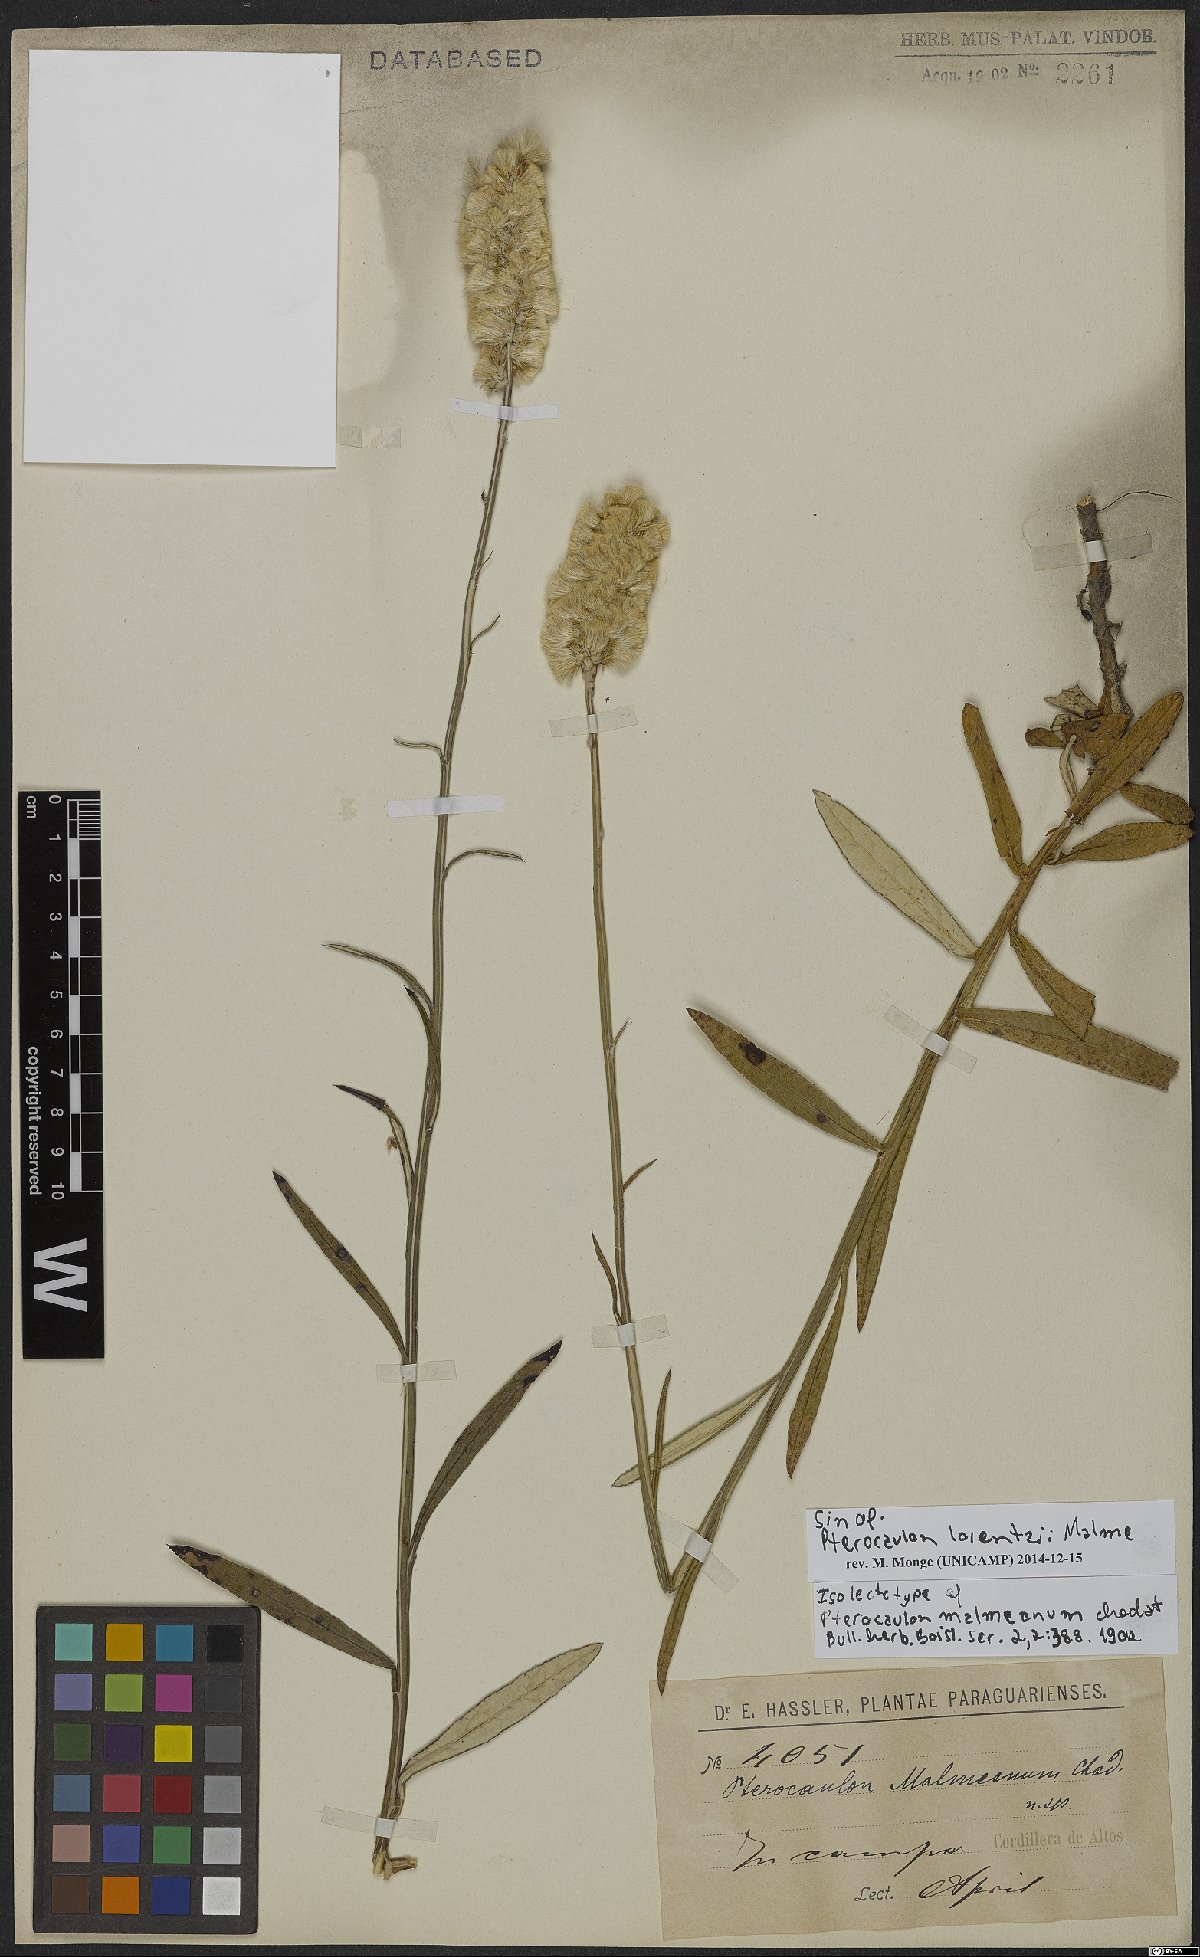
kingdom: Plantae
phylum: Tracheophyta
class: Magnoliopsida
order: Asterales
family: Asteraceae
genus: Pterocaulon
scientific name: Pterocaulon lorentzii
